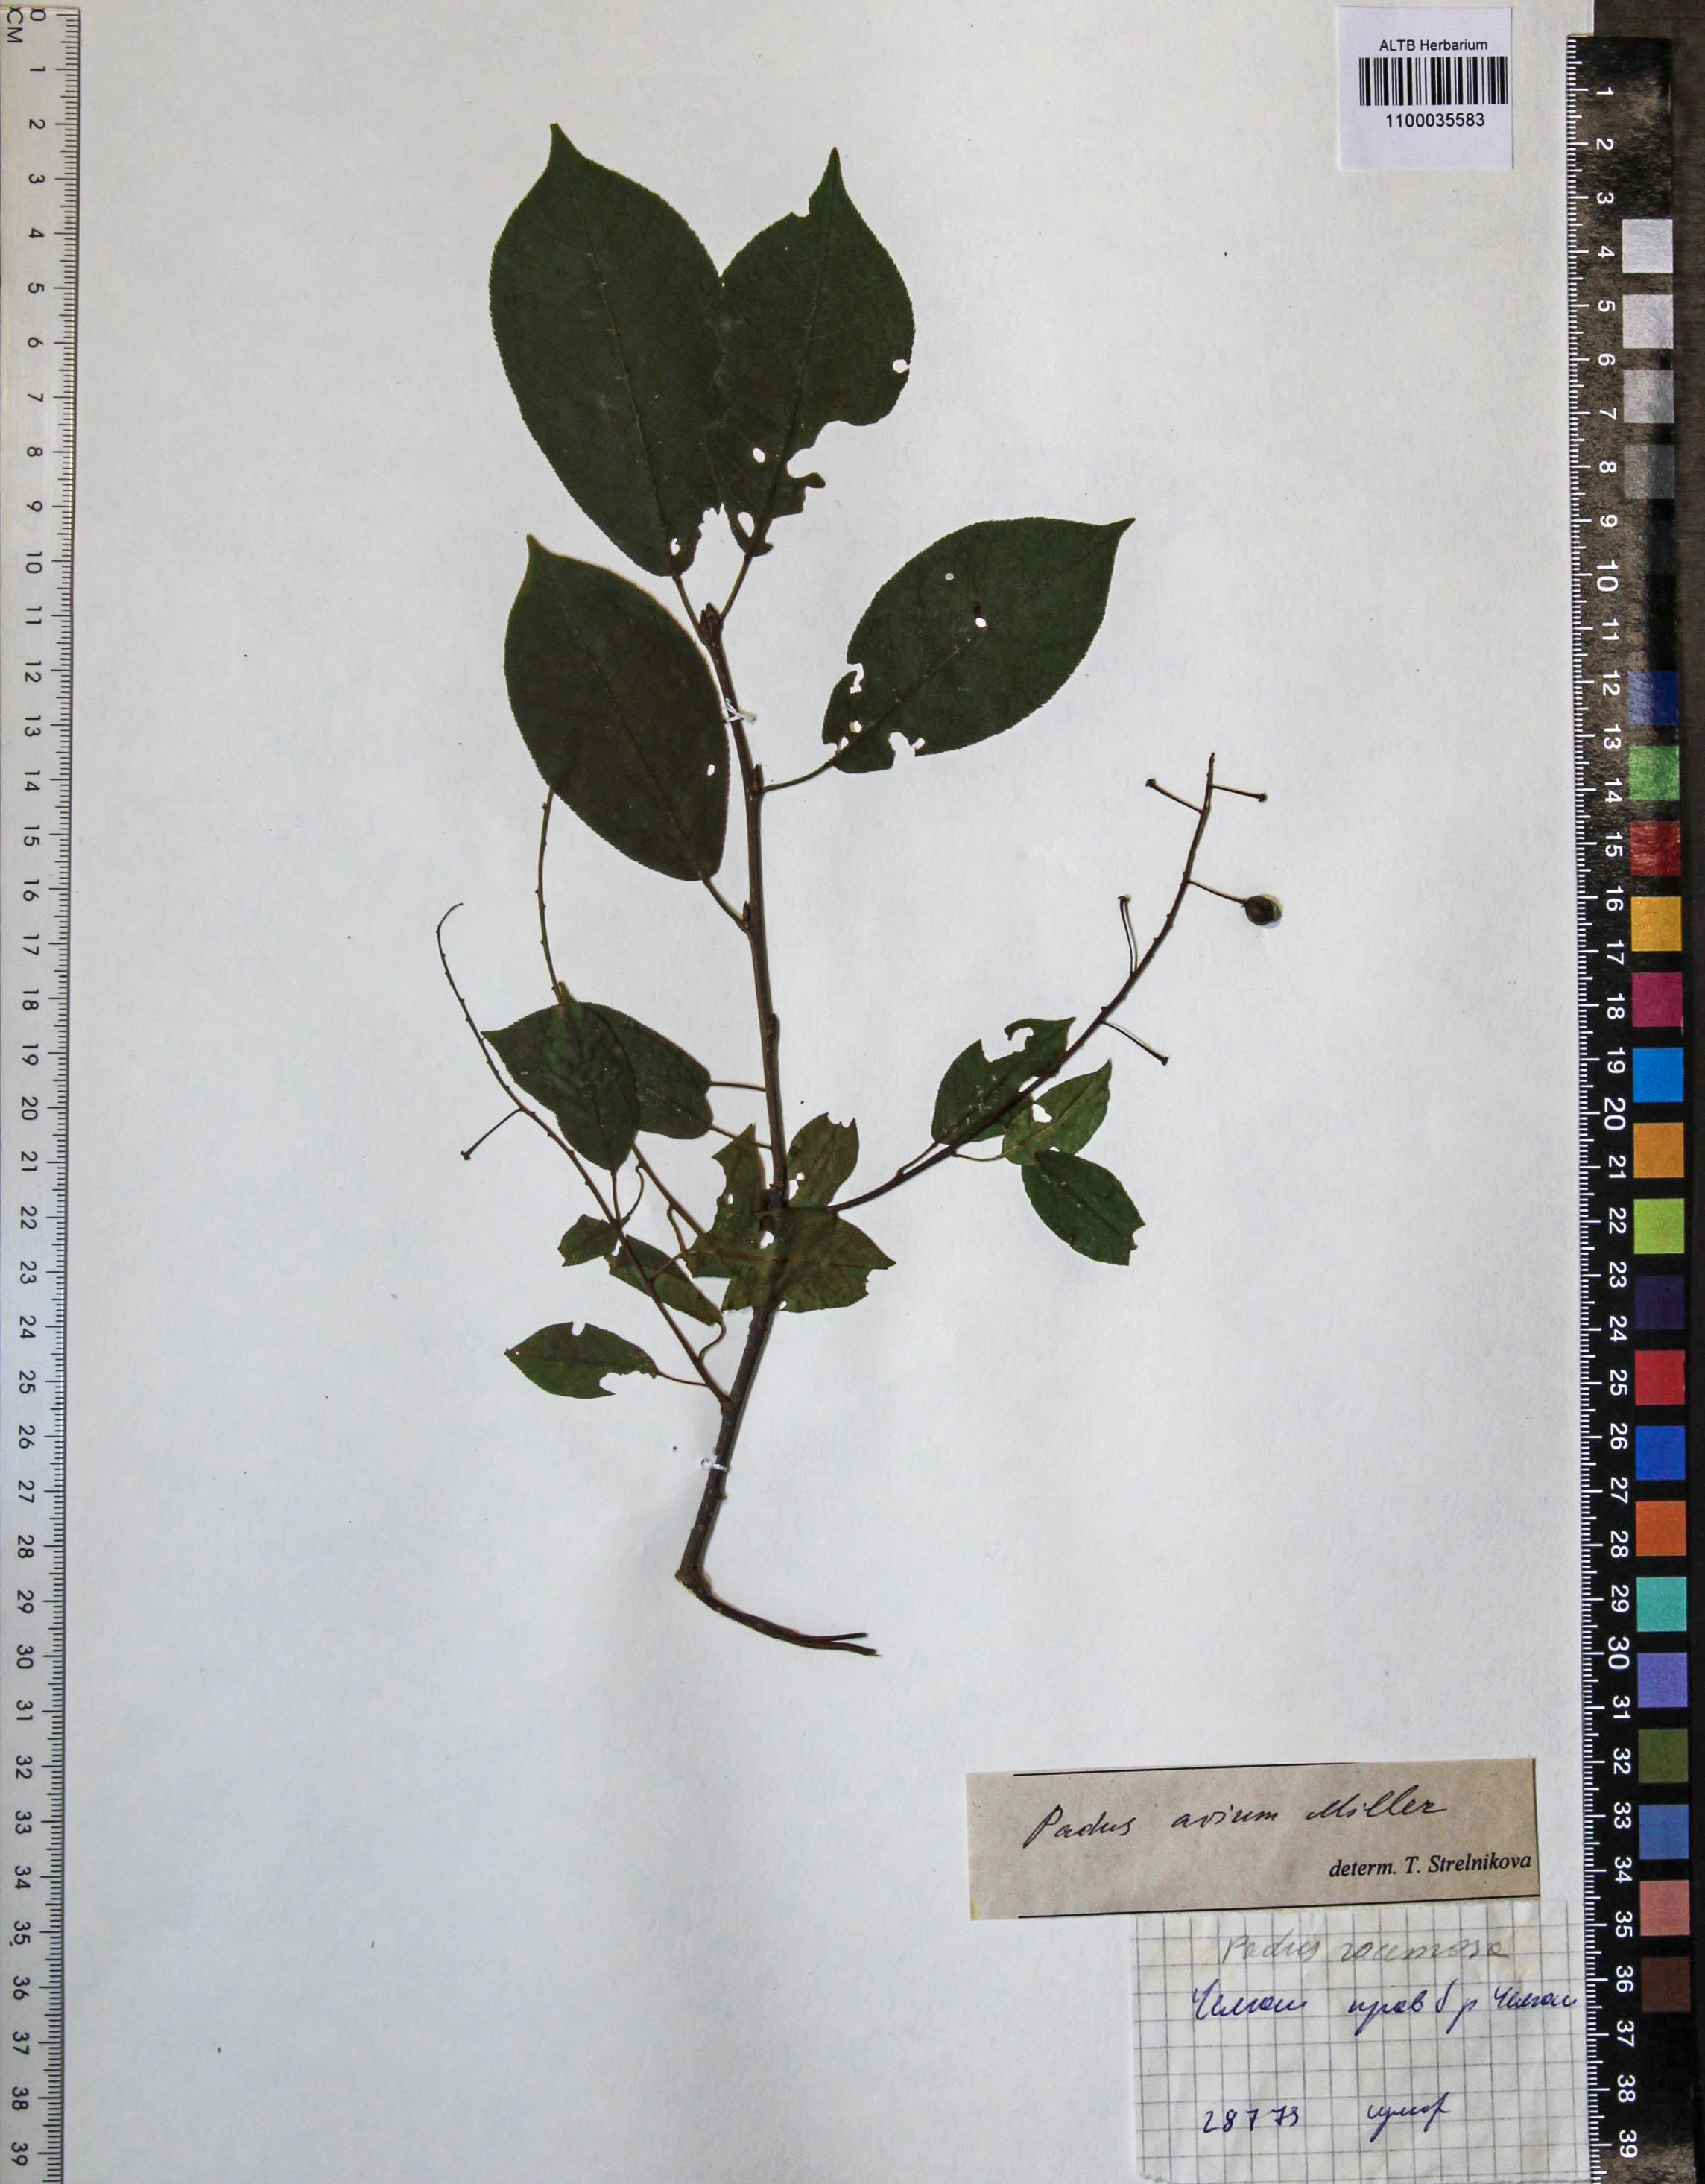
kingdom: Plantae
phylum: Tracheophyta
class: Magnoliopsida
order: Rosales
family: Rosaceae
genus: Prunus
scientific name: Prunus padus
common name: Bird cherry
